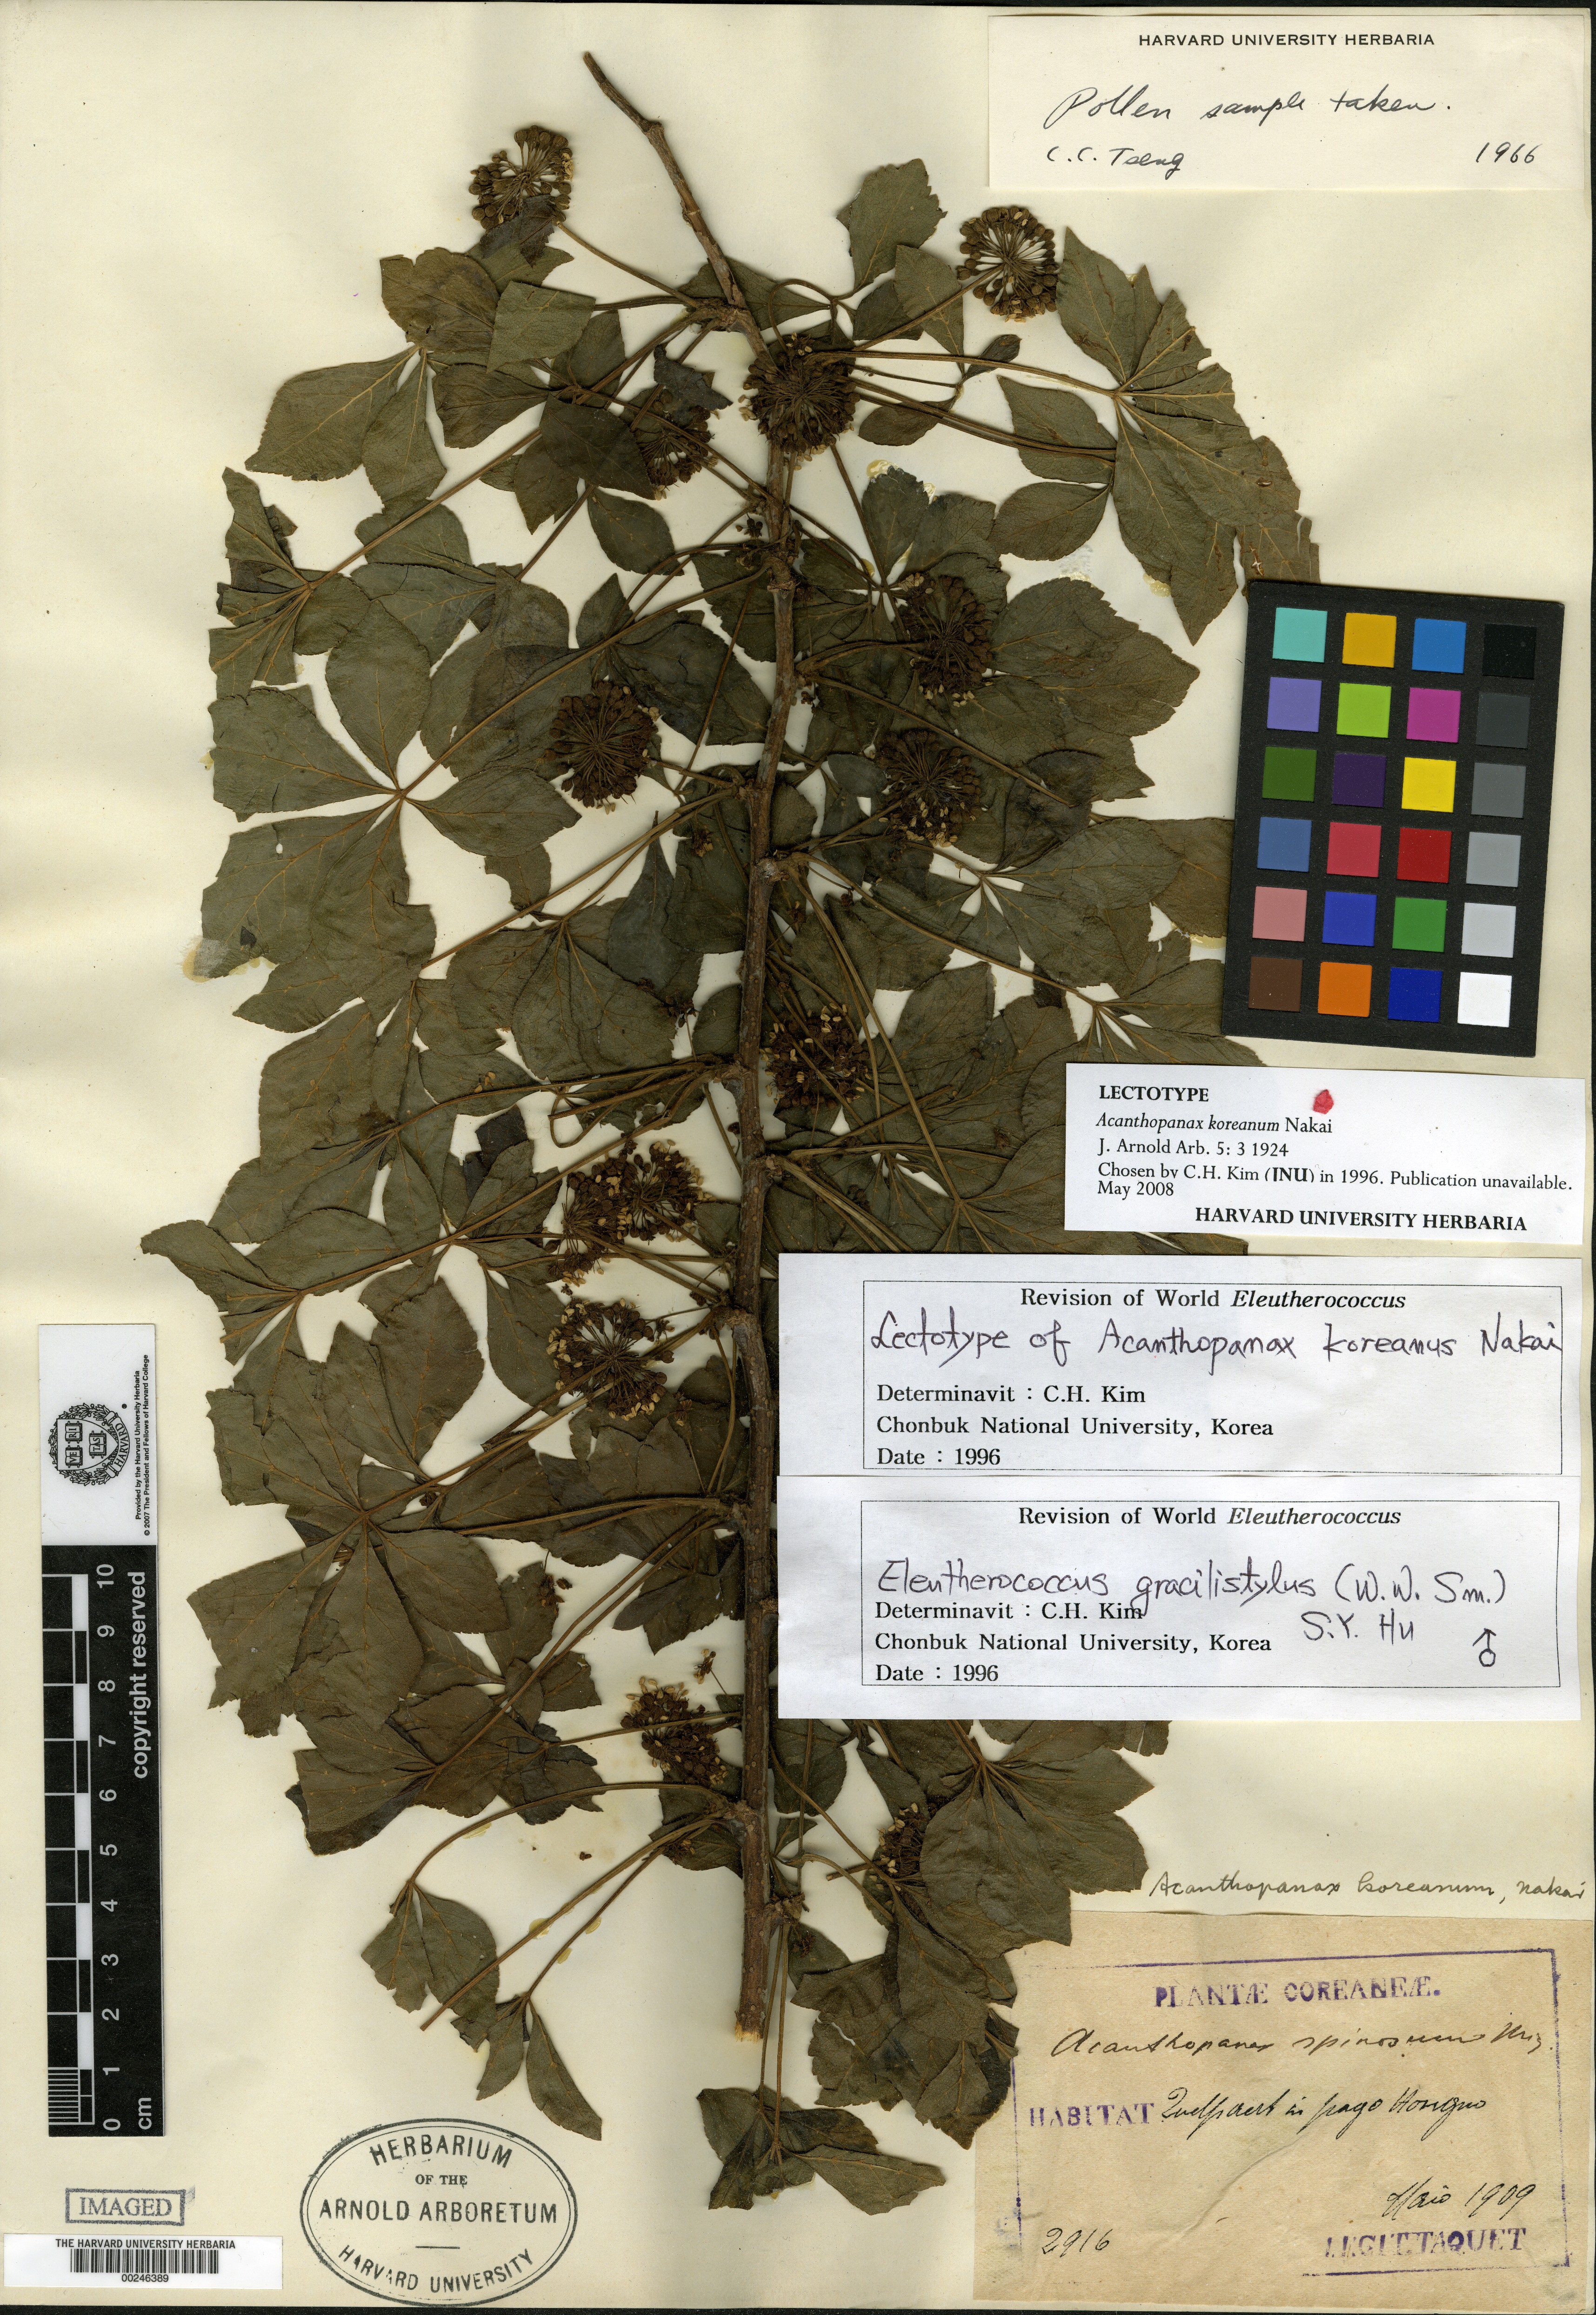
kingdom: Plantae
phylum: Tracheophyta
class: Magnoliopsida
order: Apiales
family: Araliaceae
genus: Eleutherococcus
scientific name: Eleutherococcus nodiflorus
